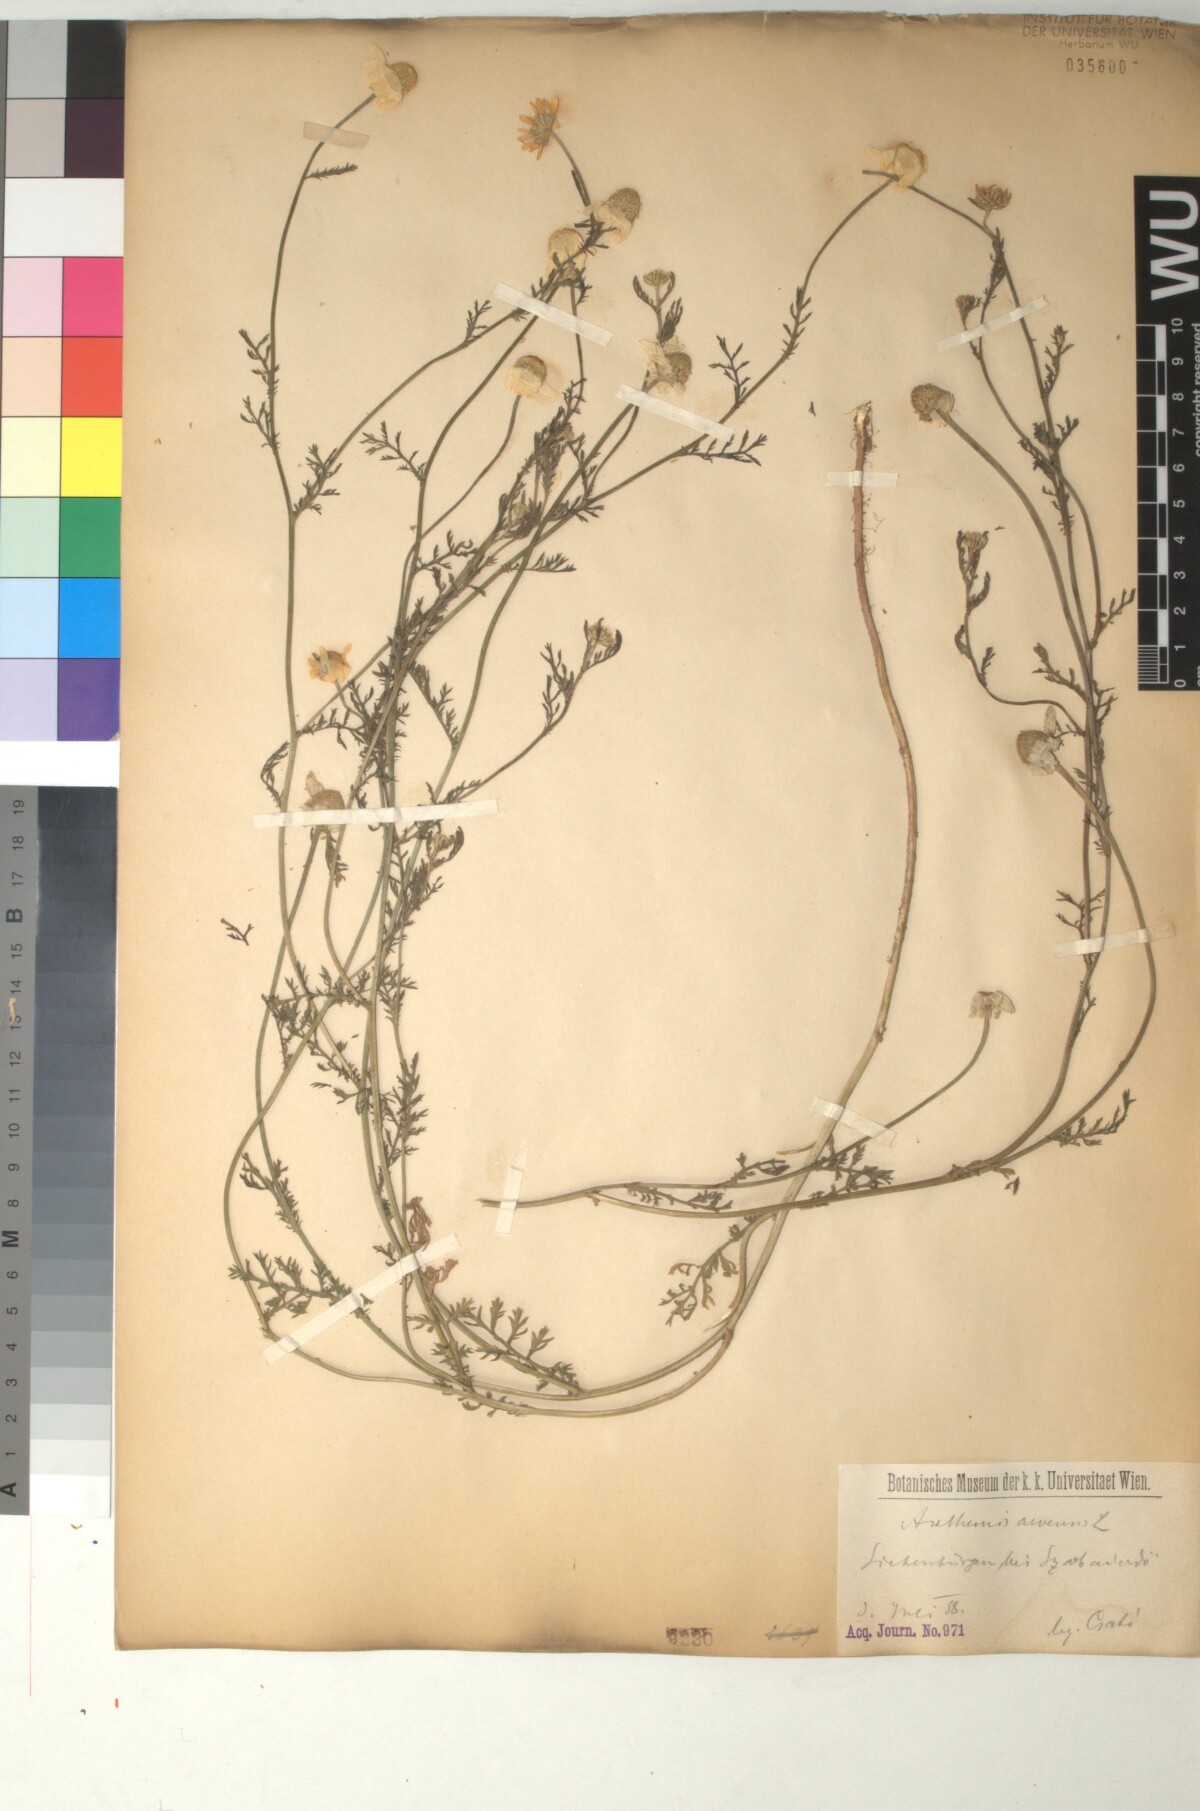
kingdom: Plantae
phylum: Tracheophyta
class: Magnoliopsida
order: Asterales
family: Asteraceae
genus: Anthemis
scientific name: Anthemis arvensis
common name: Corn chamomile
